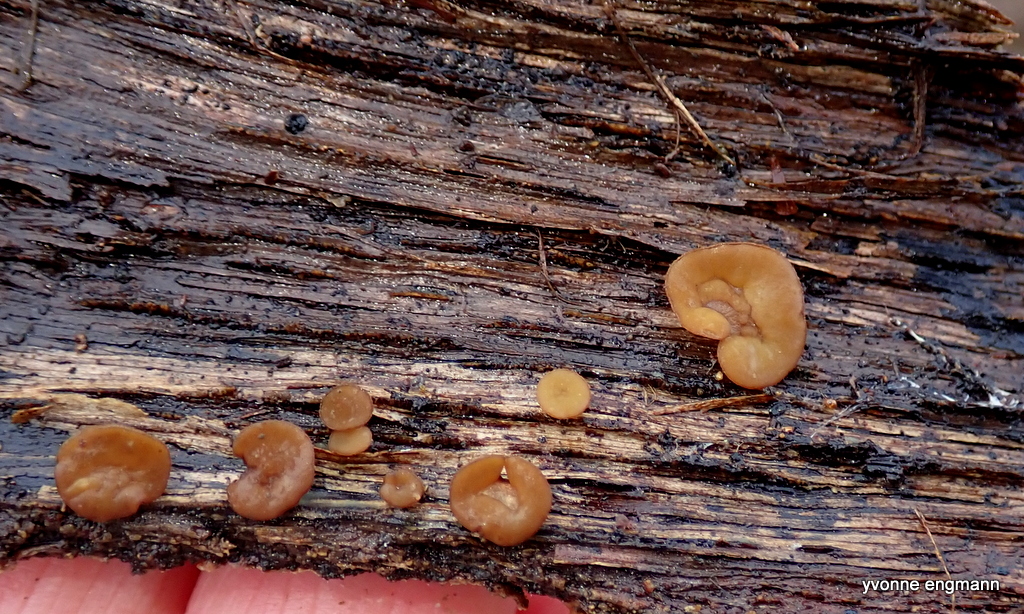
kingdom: Fungi
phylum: Ascomycota
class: Leotiomycetes
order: Helotiales
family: Rutstroemiaceae
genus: Rutstroemia
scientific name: Rutstroemia firma
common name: gren-brunskive
